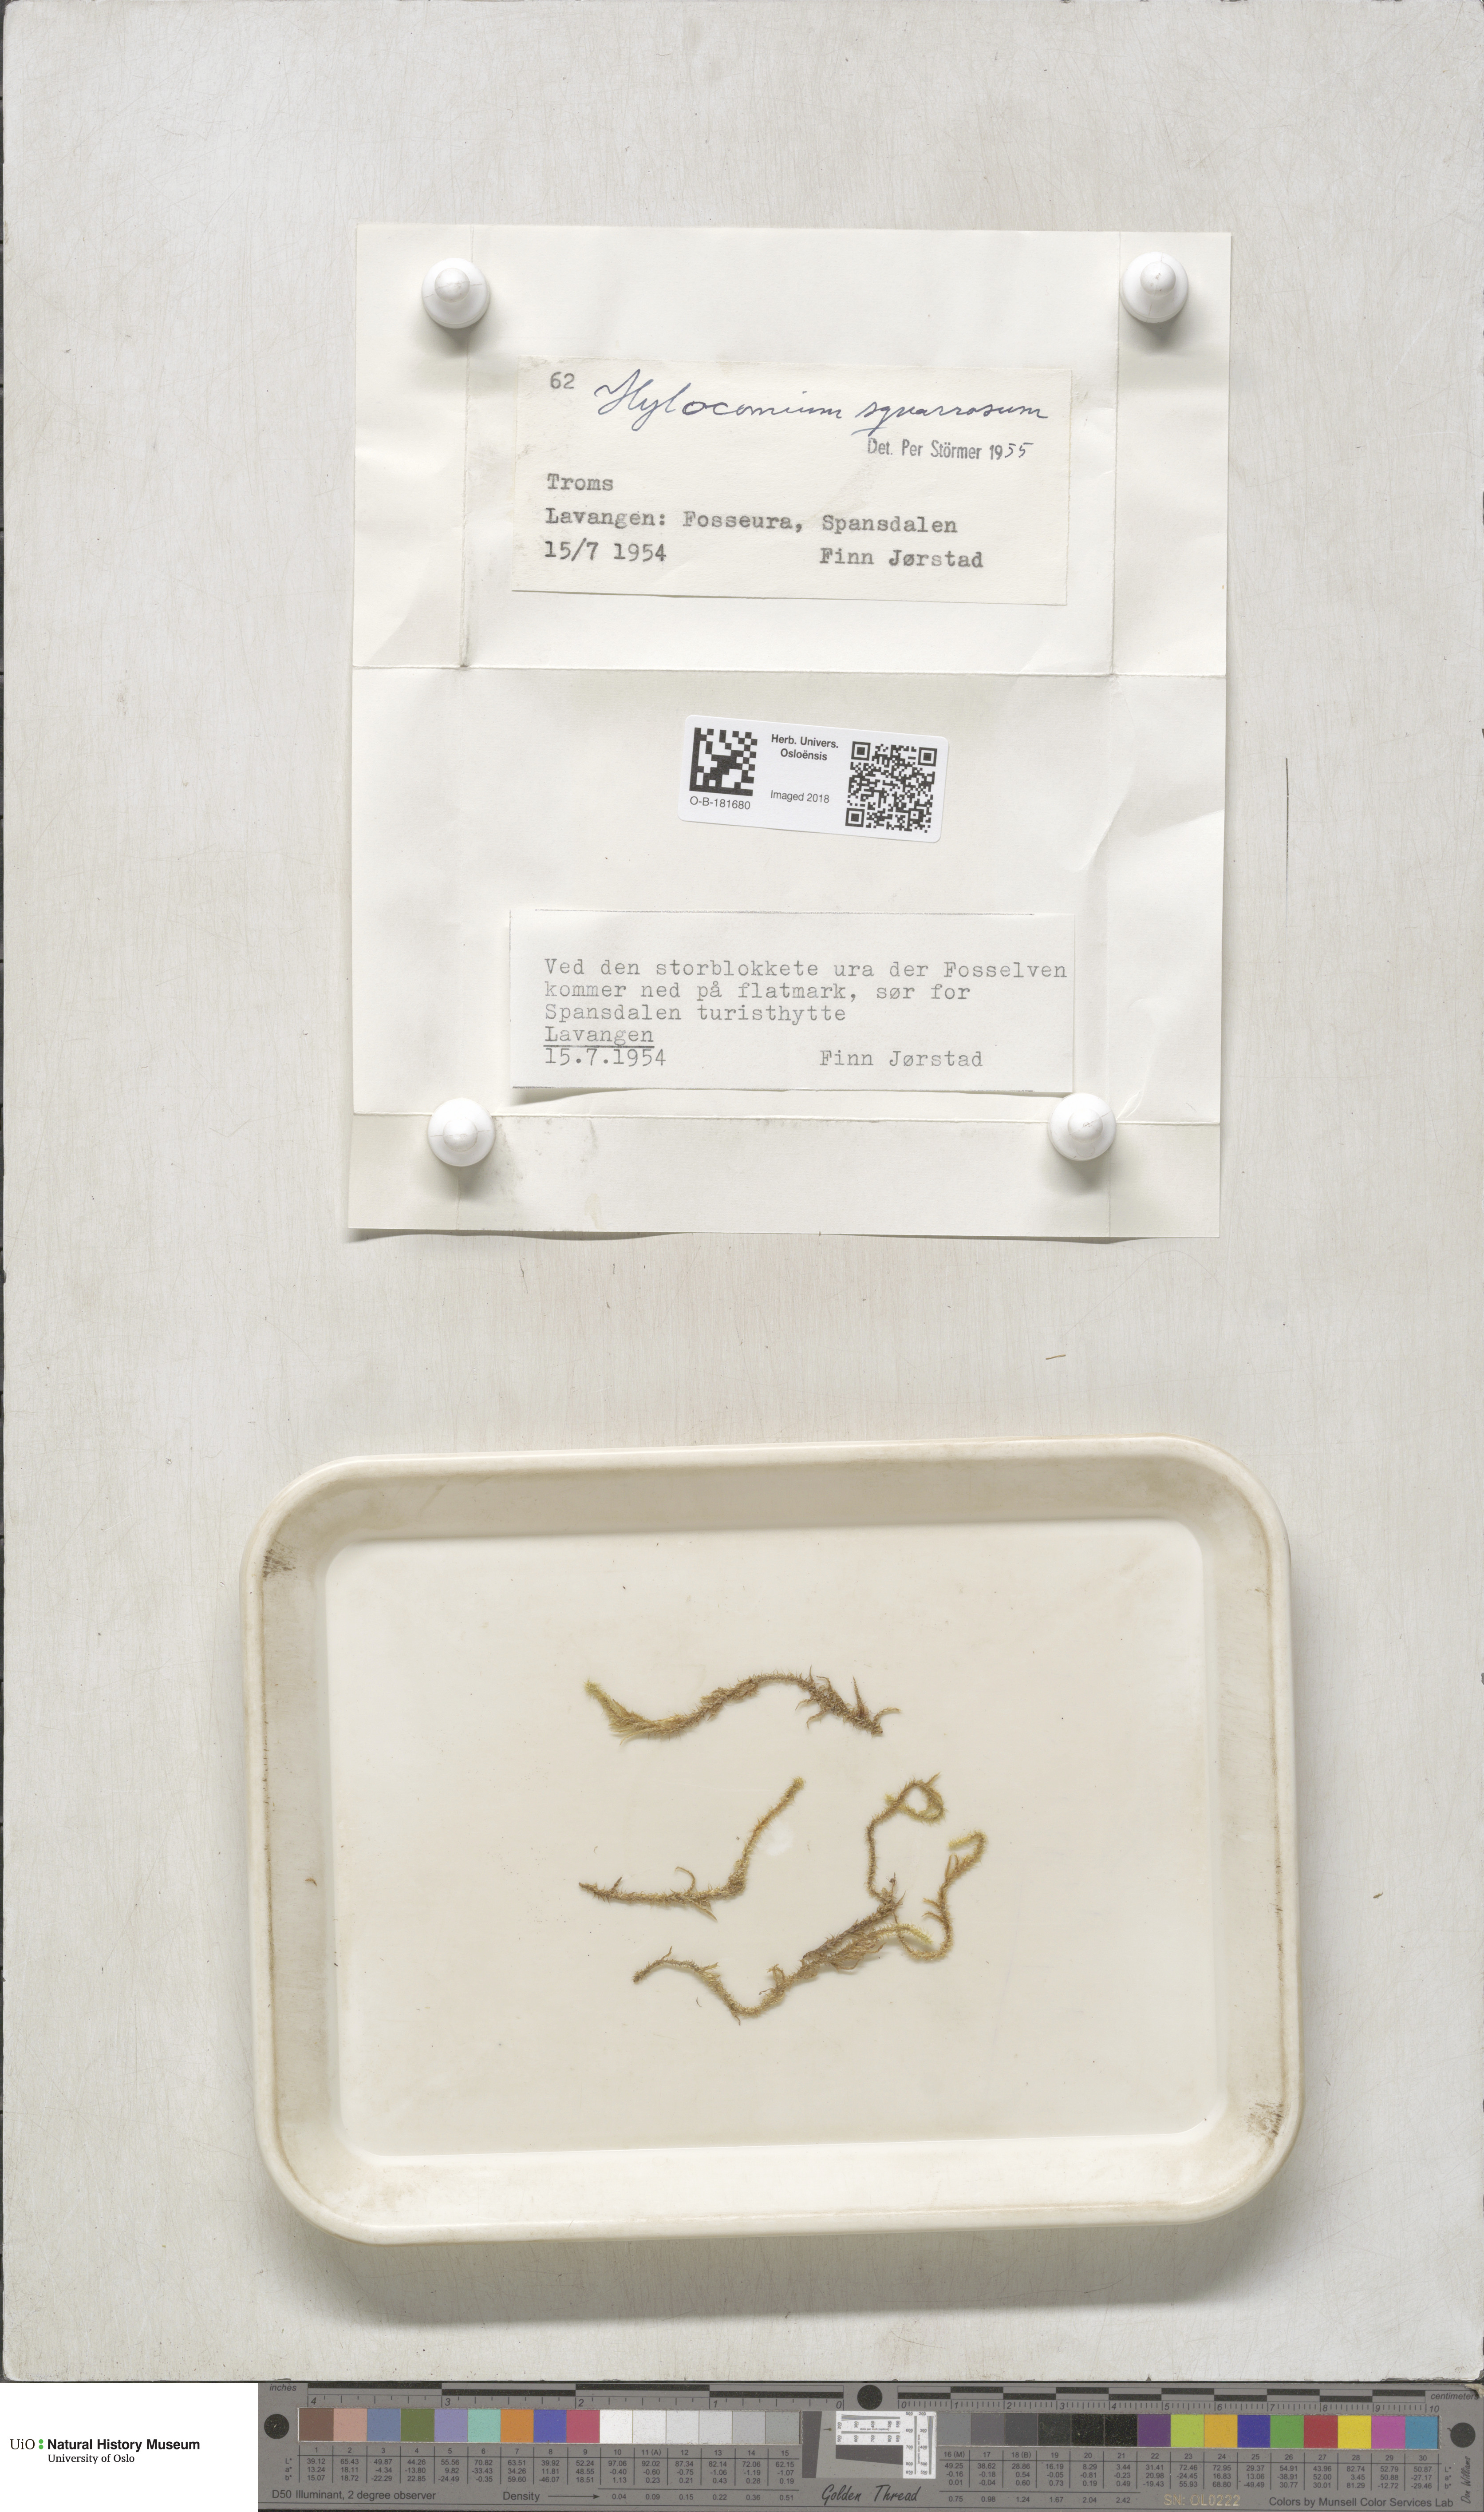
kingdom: Plantae
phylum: Bryophyta
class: Bryopsida
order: Hypnales
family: Hylocomiaceae
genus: Rhytidiadelphus
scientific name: Rhytidiadelphus squarrosus
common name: Springy turf-moss
